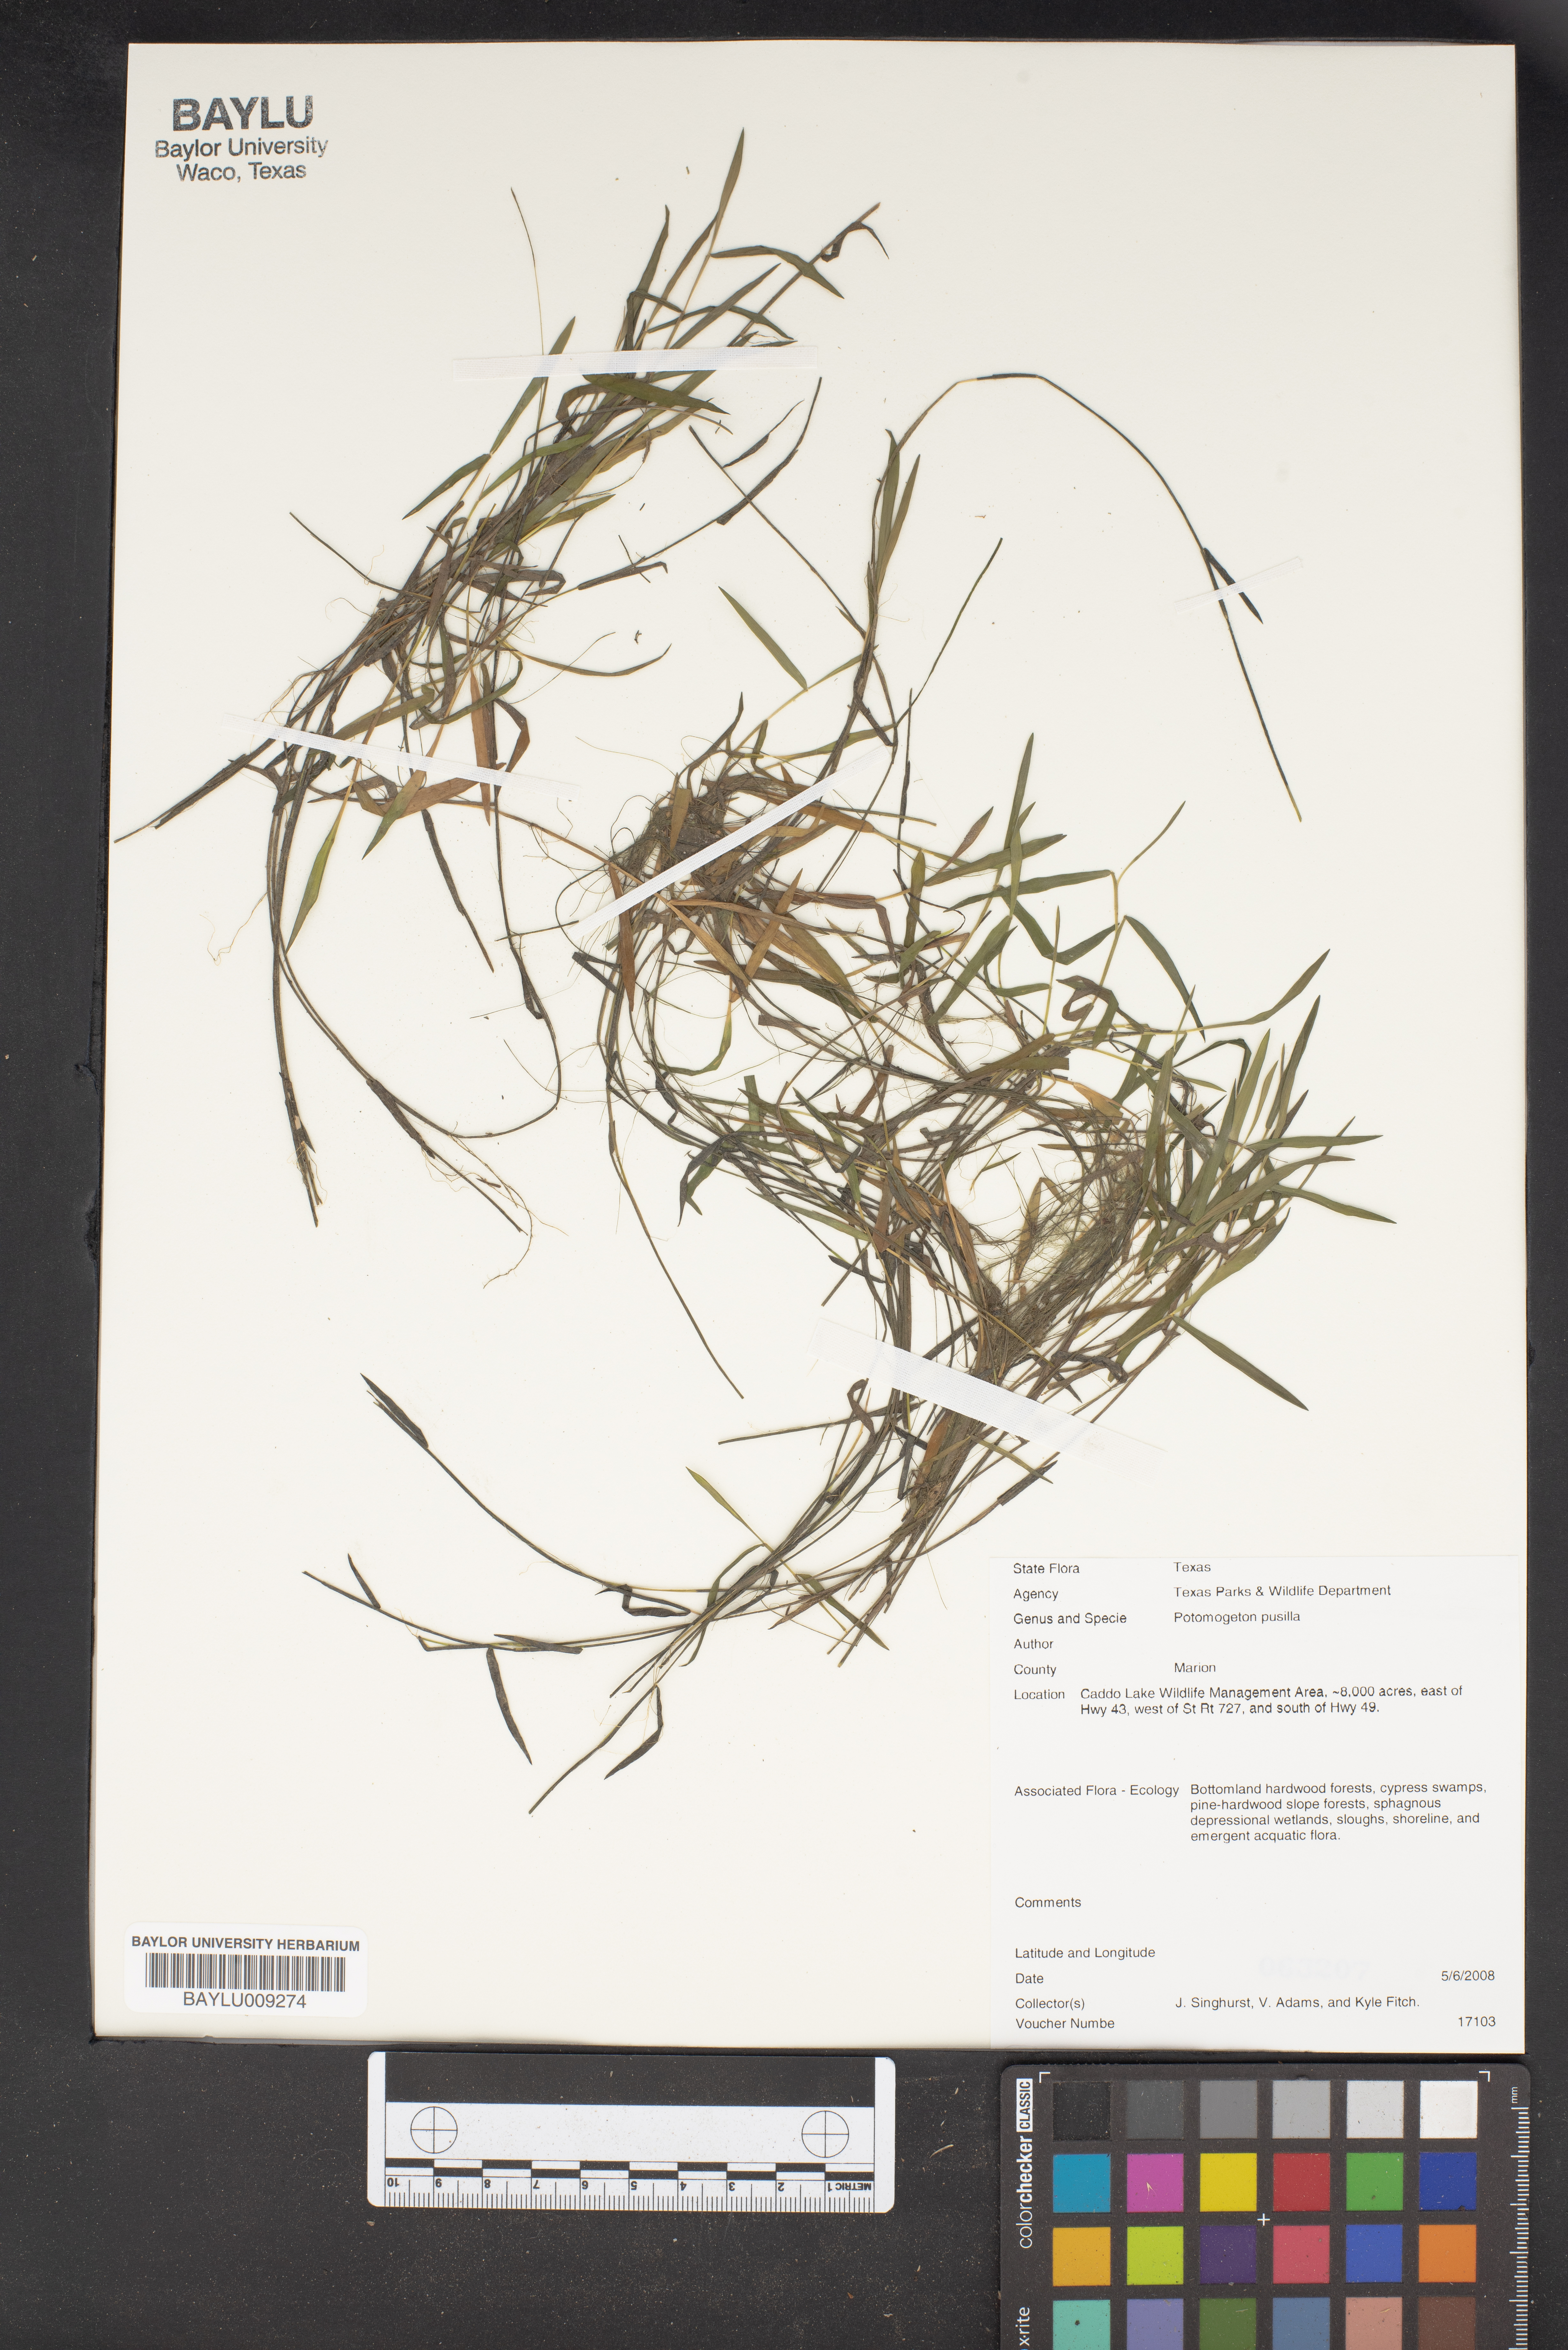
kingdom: Plantae
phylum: Tracheophyta
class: Liliopsida
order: Alismatales
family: Potamogetonaceae
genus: Potamogeton
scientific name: Potamogeton pusillus
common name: Lesser pondweed
